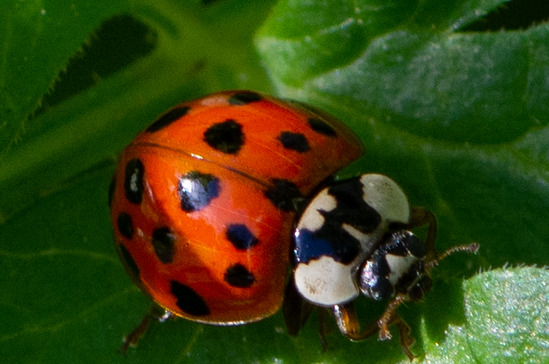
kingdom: Animalia
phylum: Arthropoda
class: Insecta
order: Coleoptera
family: Coccinellidae
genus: Harmonia
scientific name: Harmonia axyridis
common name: Harlekinmariehøne
